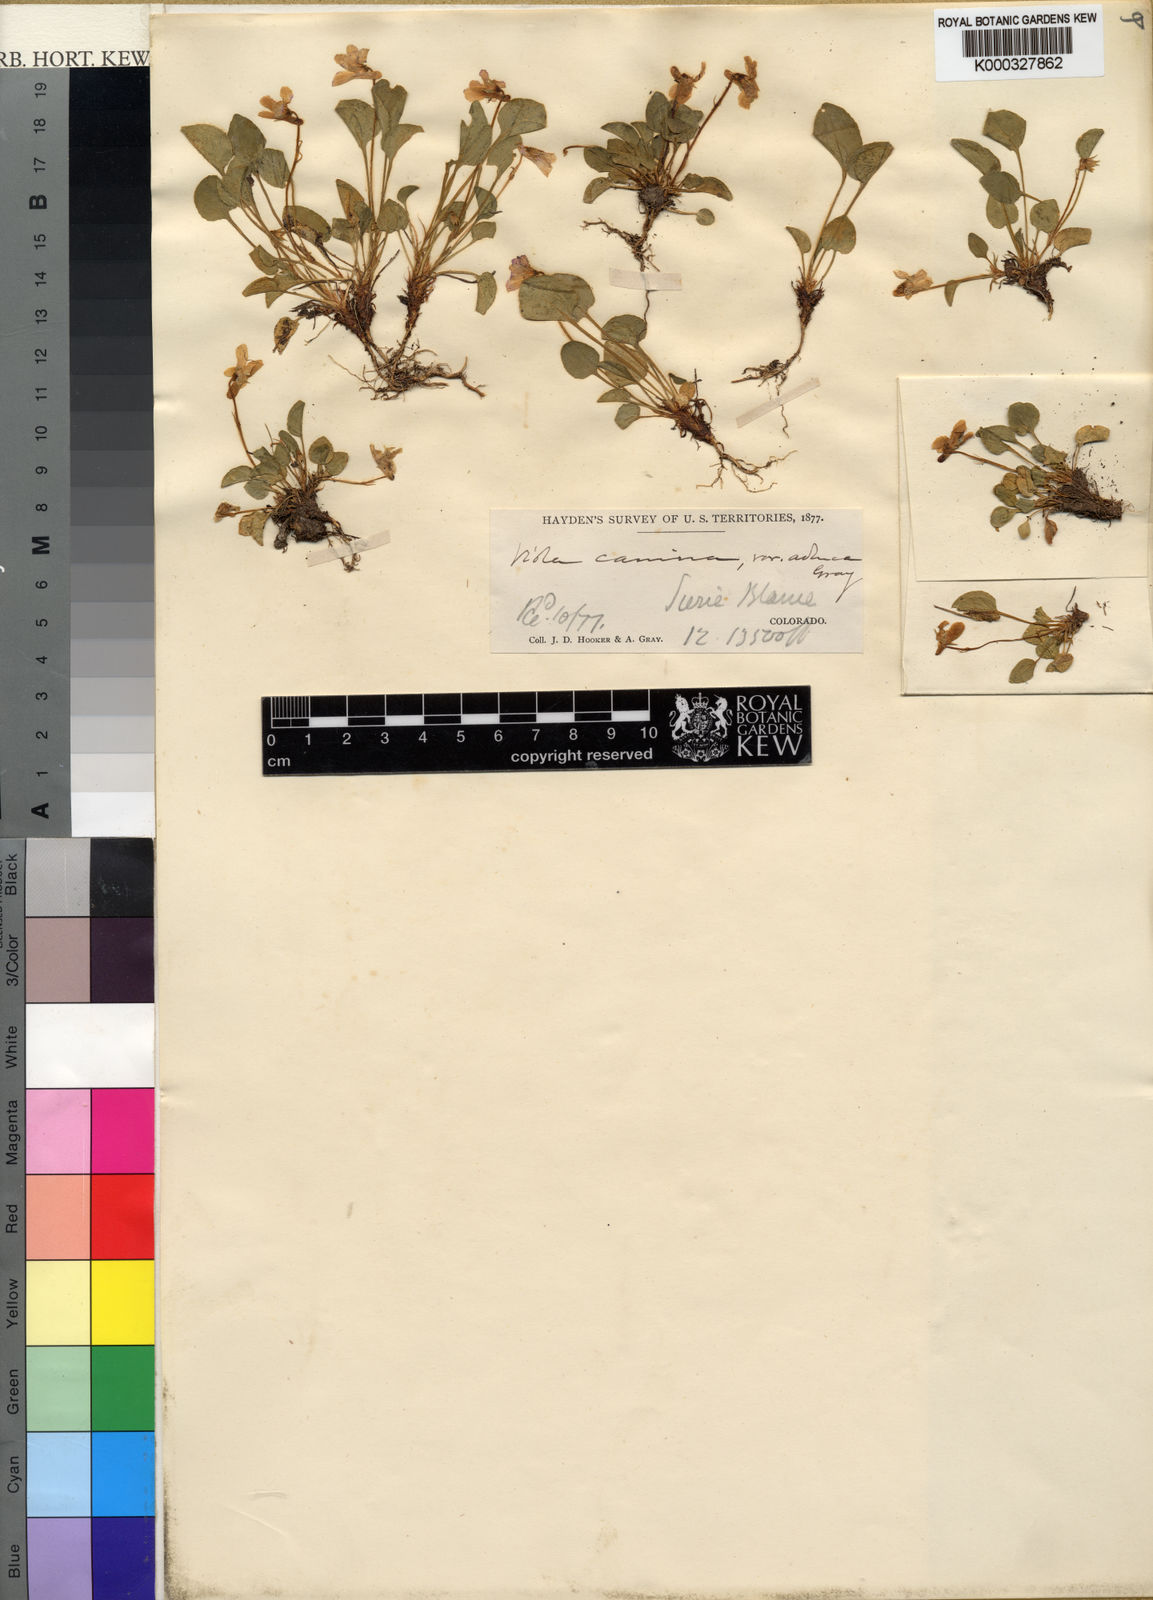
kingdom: Plantae
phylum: Tracheophyta
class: Magnoliopsida
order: Malpighiales
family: Violaceae
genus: Viola
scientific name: Viola adunca
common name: Sand violet
